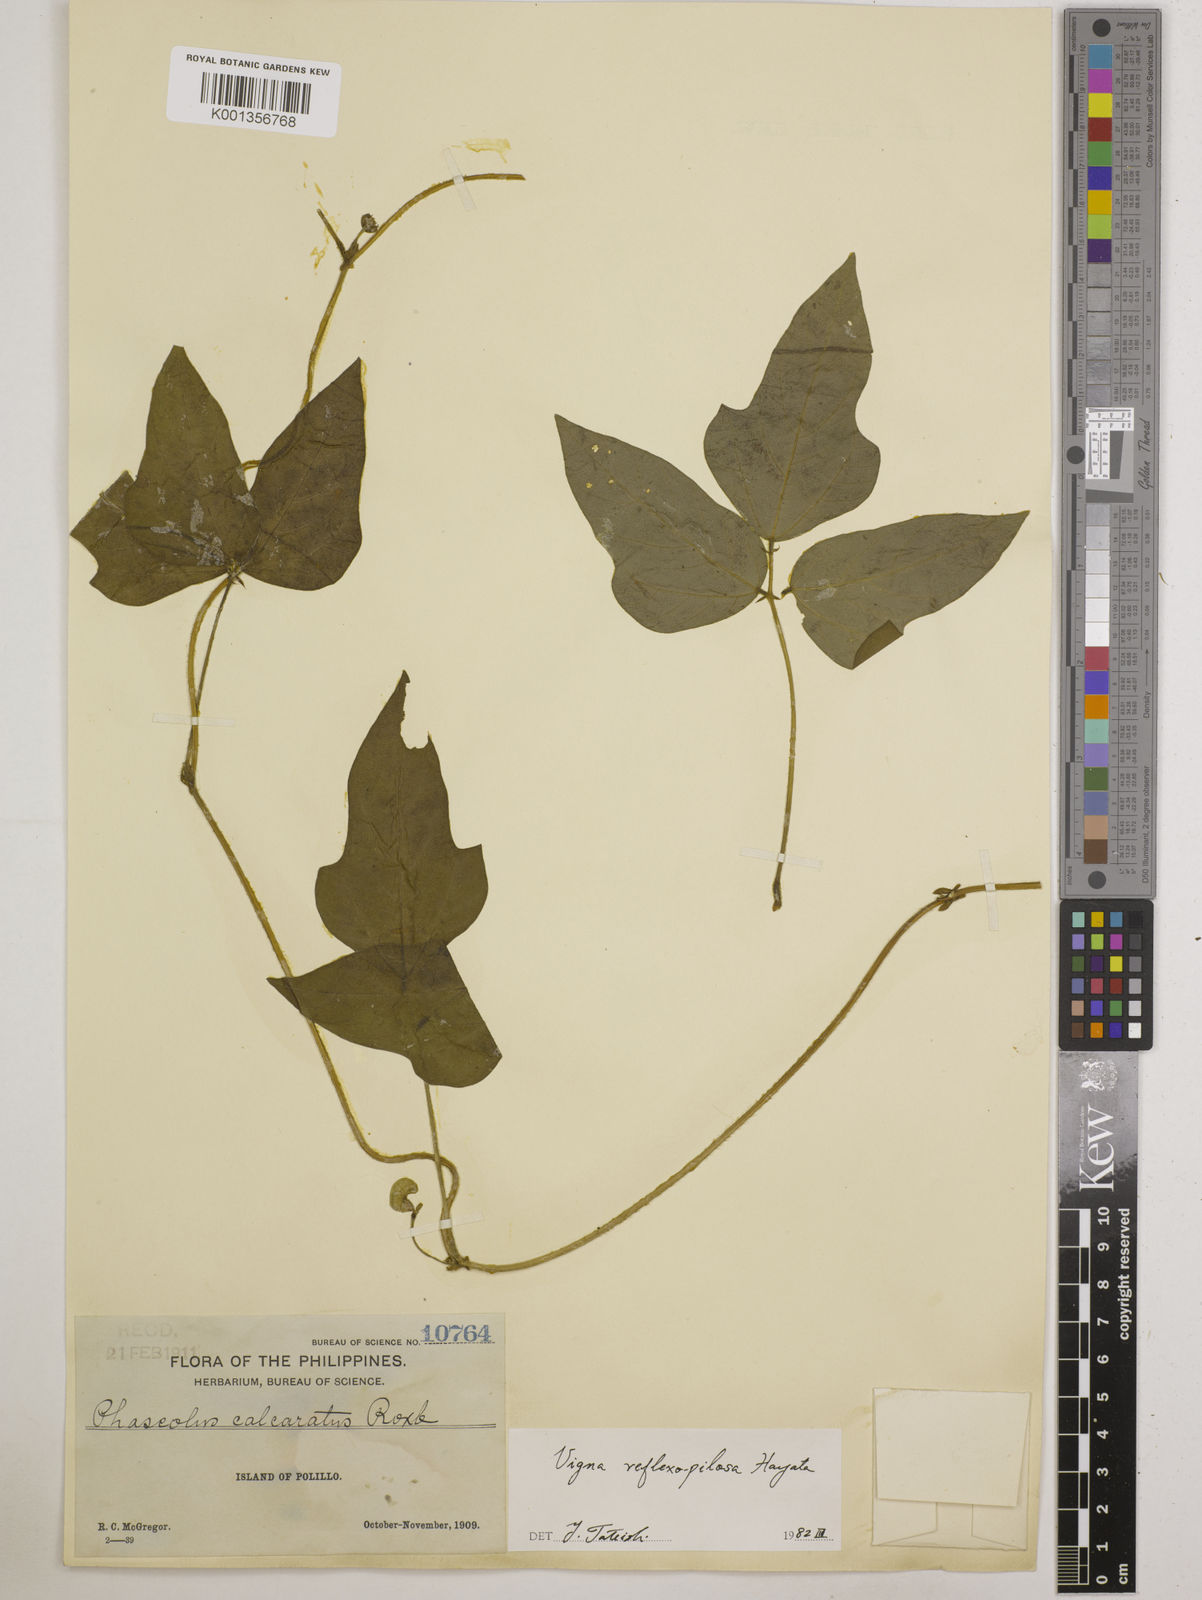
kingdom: Plantae
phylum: Tracheophyta
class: Magnoliopsida
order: Fabales
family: Fabaceae
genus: Vigna
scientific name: Vigna reflexopilosa
